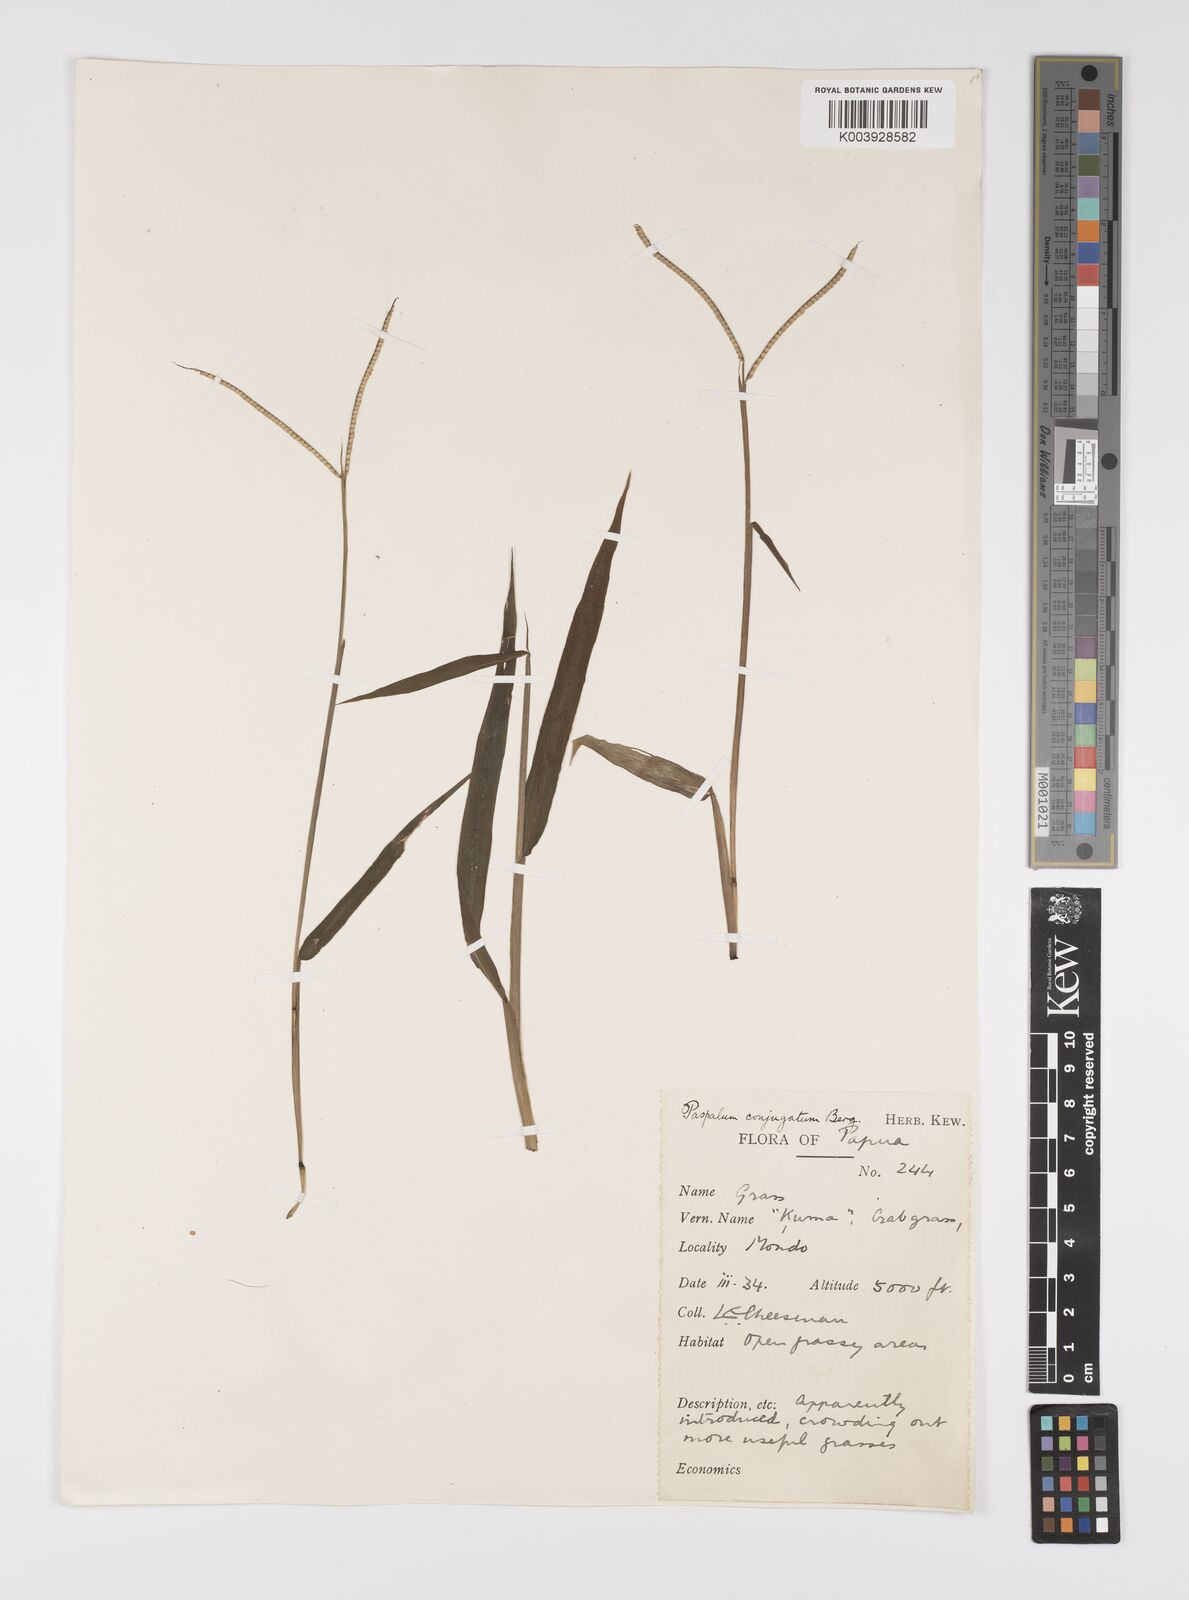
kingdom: Plantae
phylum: Tracheophyta
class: Liliopsida
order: Poales
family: Poaceae
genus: Paspalum
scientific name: Paspalum conjugatum
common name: Hilograss
